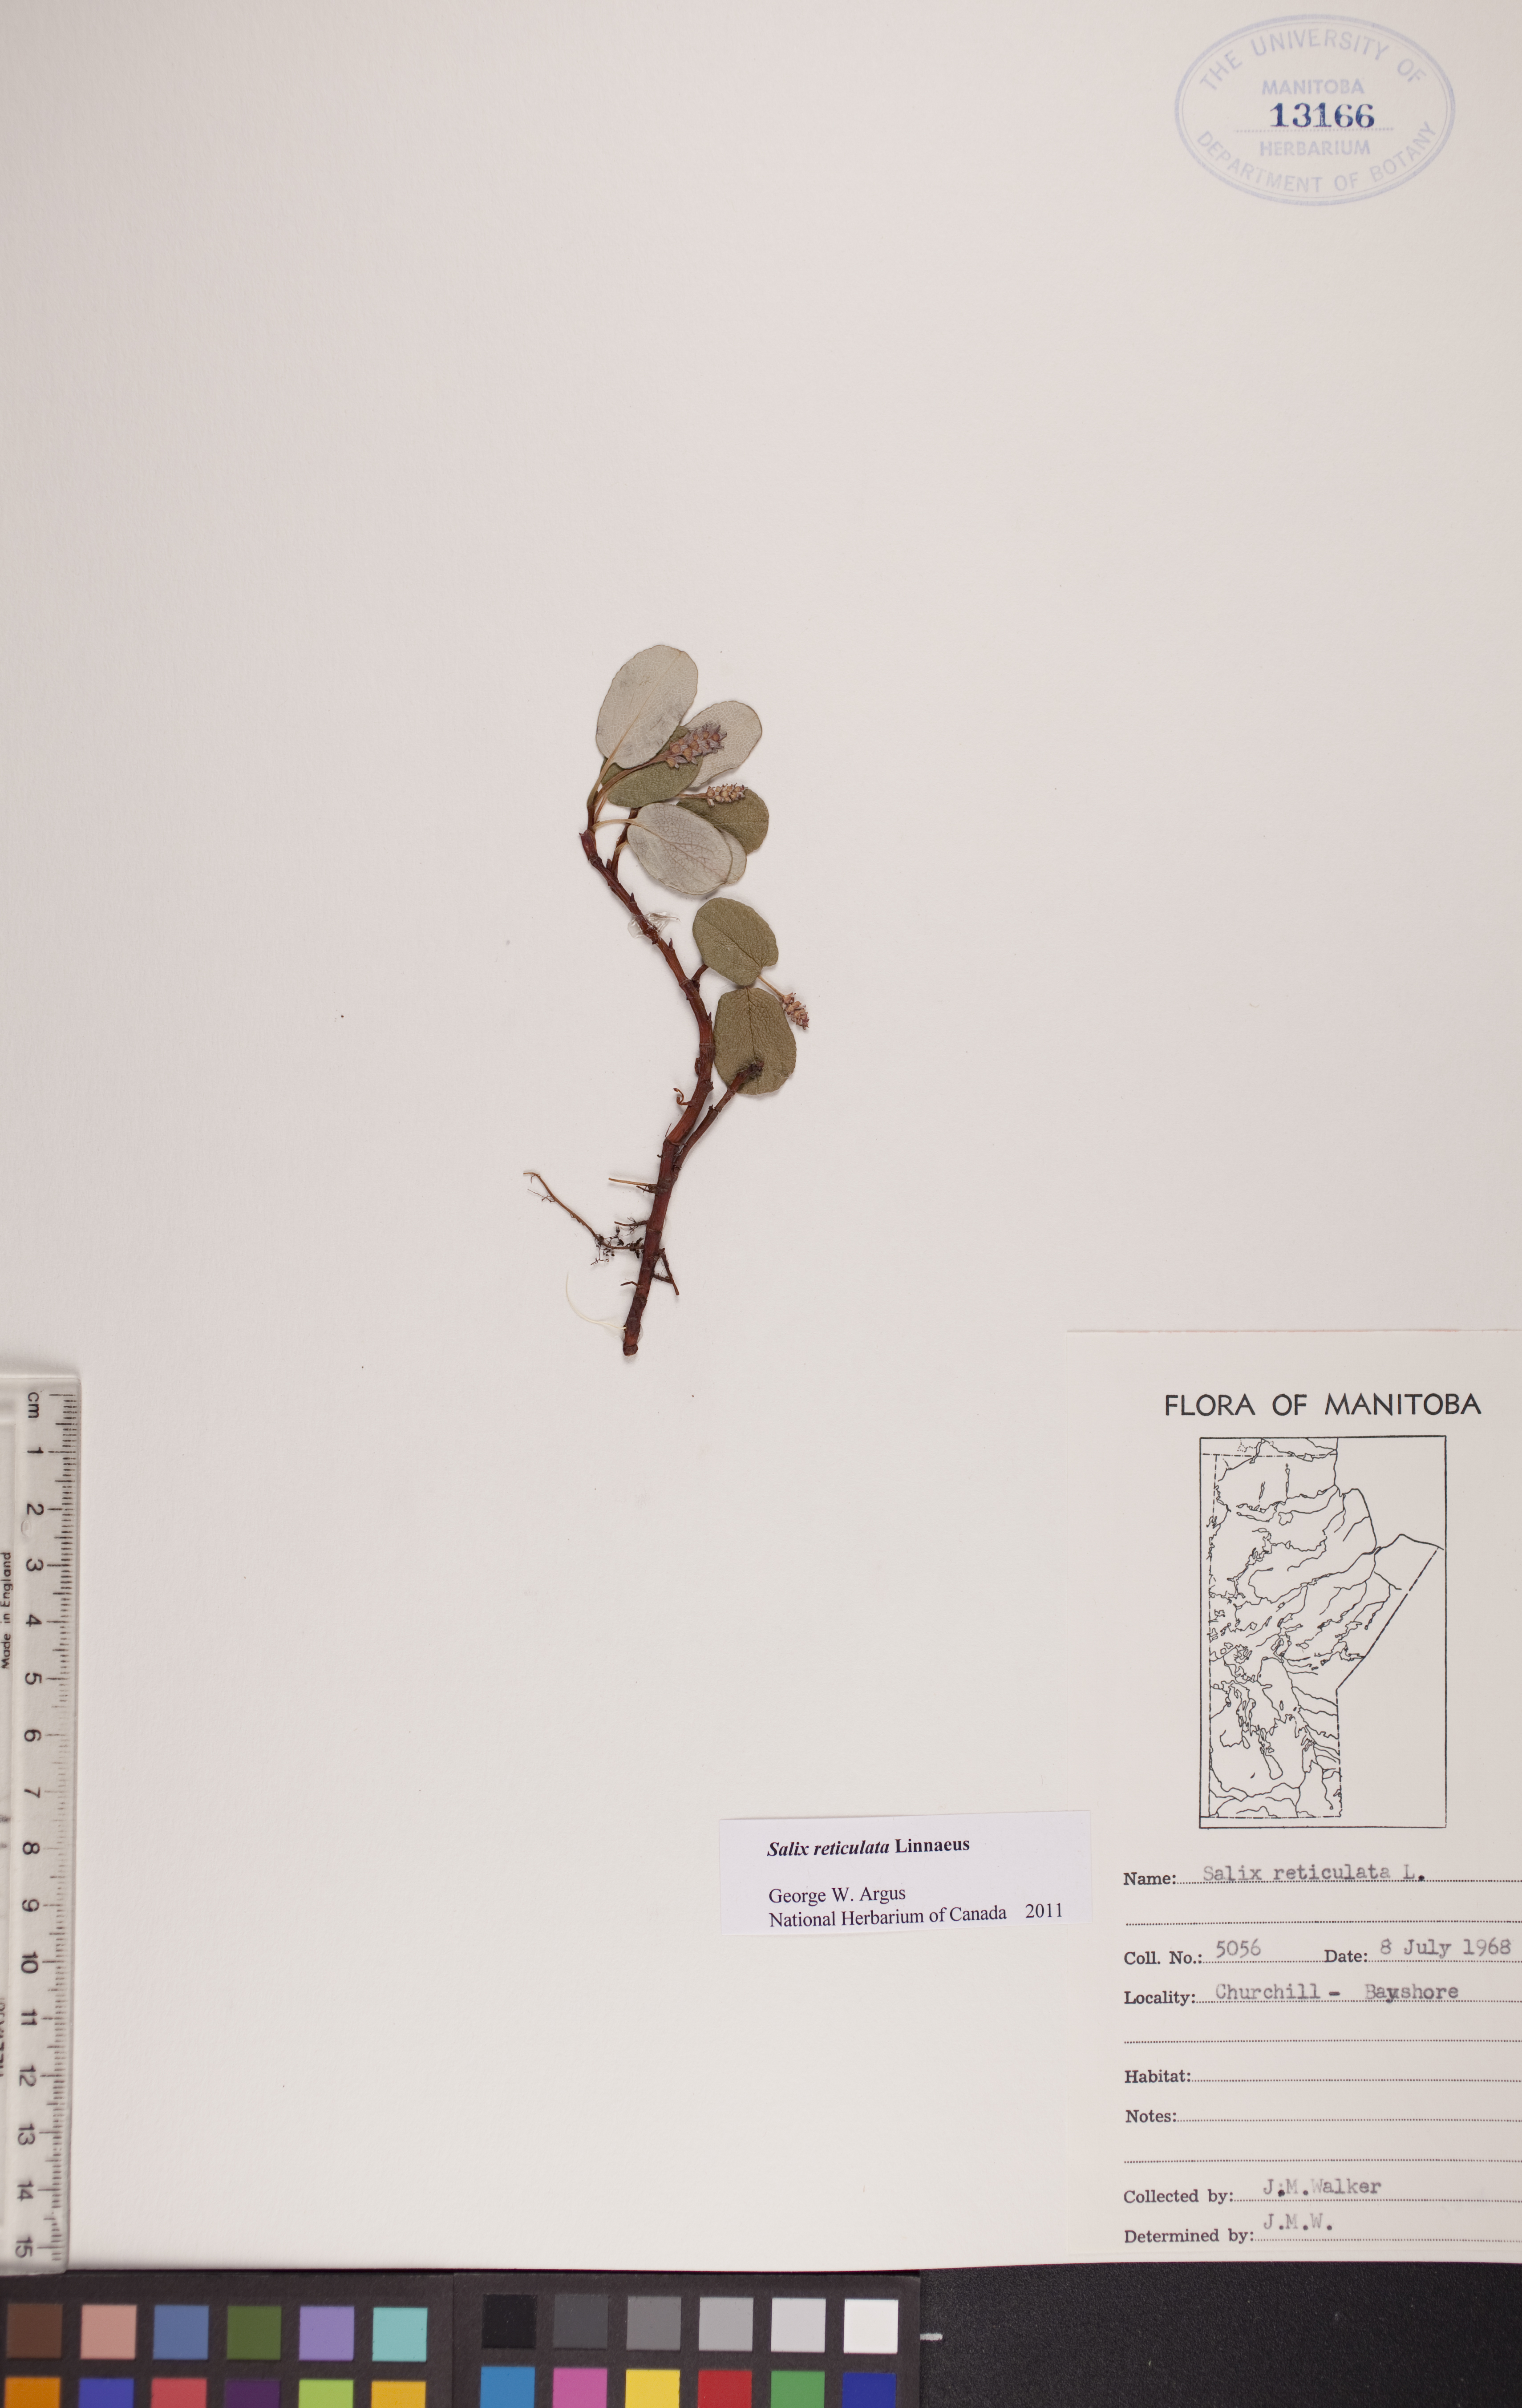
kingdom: Plantae
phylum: Tracheophyta
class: Magnoliopsida
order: Malpighiales
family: Salicaceae
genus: Salix
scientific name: Salix reticulata
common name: Net-leaved willow
